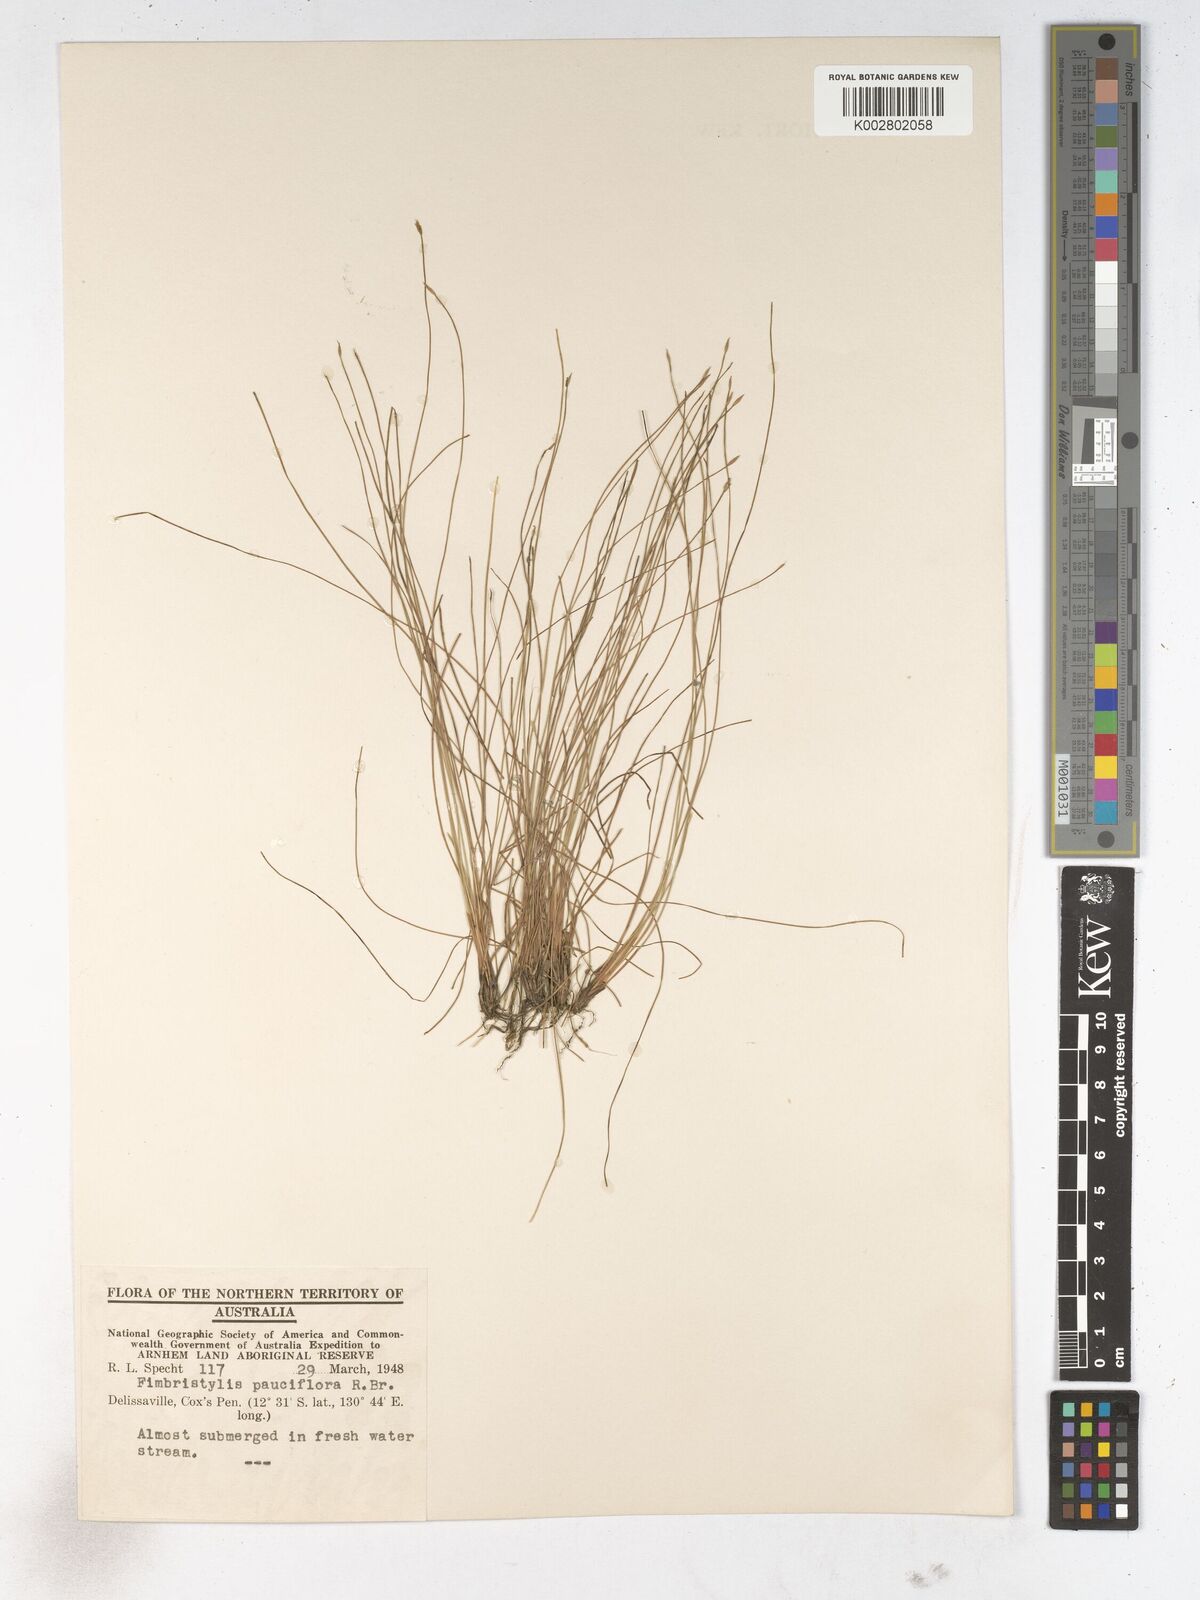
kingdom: Plantae
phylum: Tracheophyta
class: Liliopsida
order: Poales
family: Cyperaceae
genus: Fimbristylis
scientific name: Fimbristylis pauciflora
